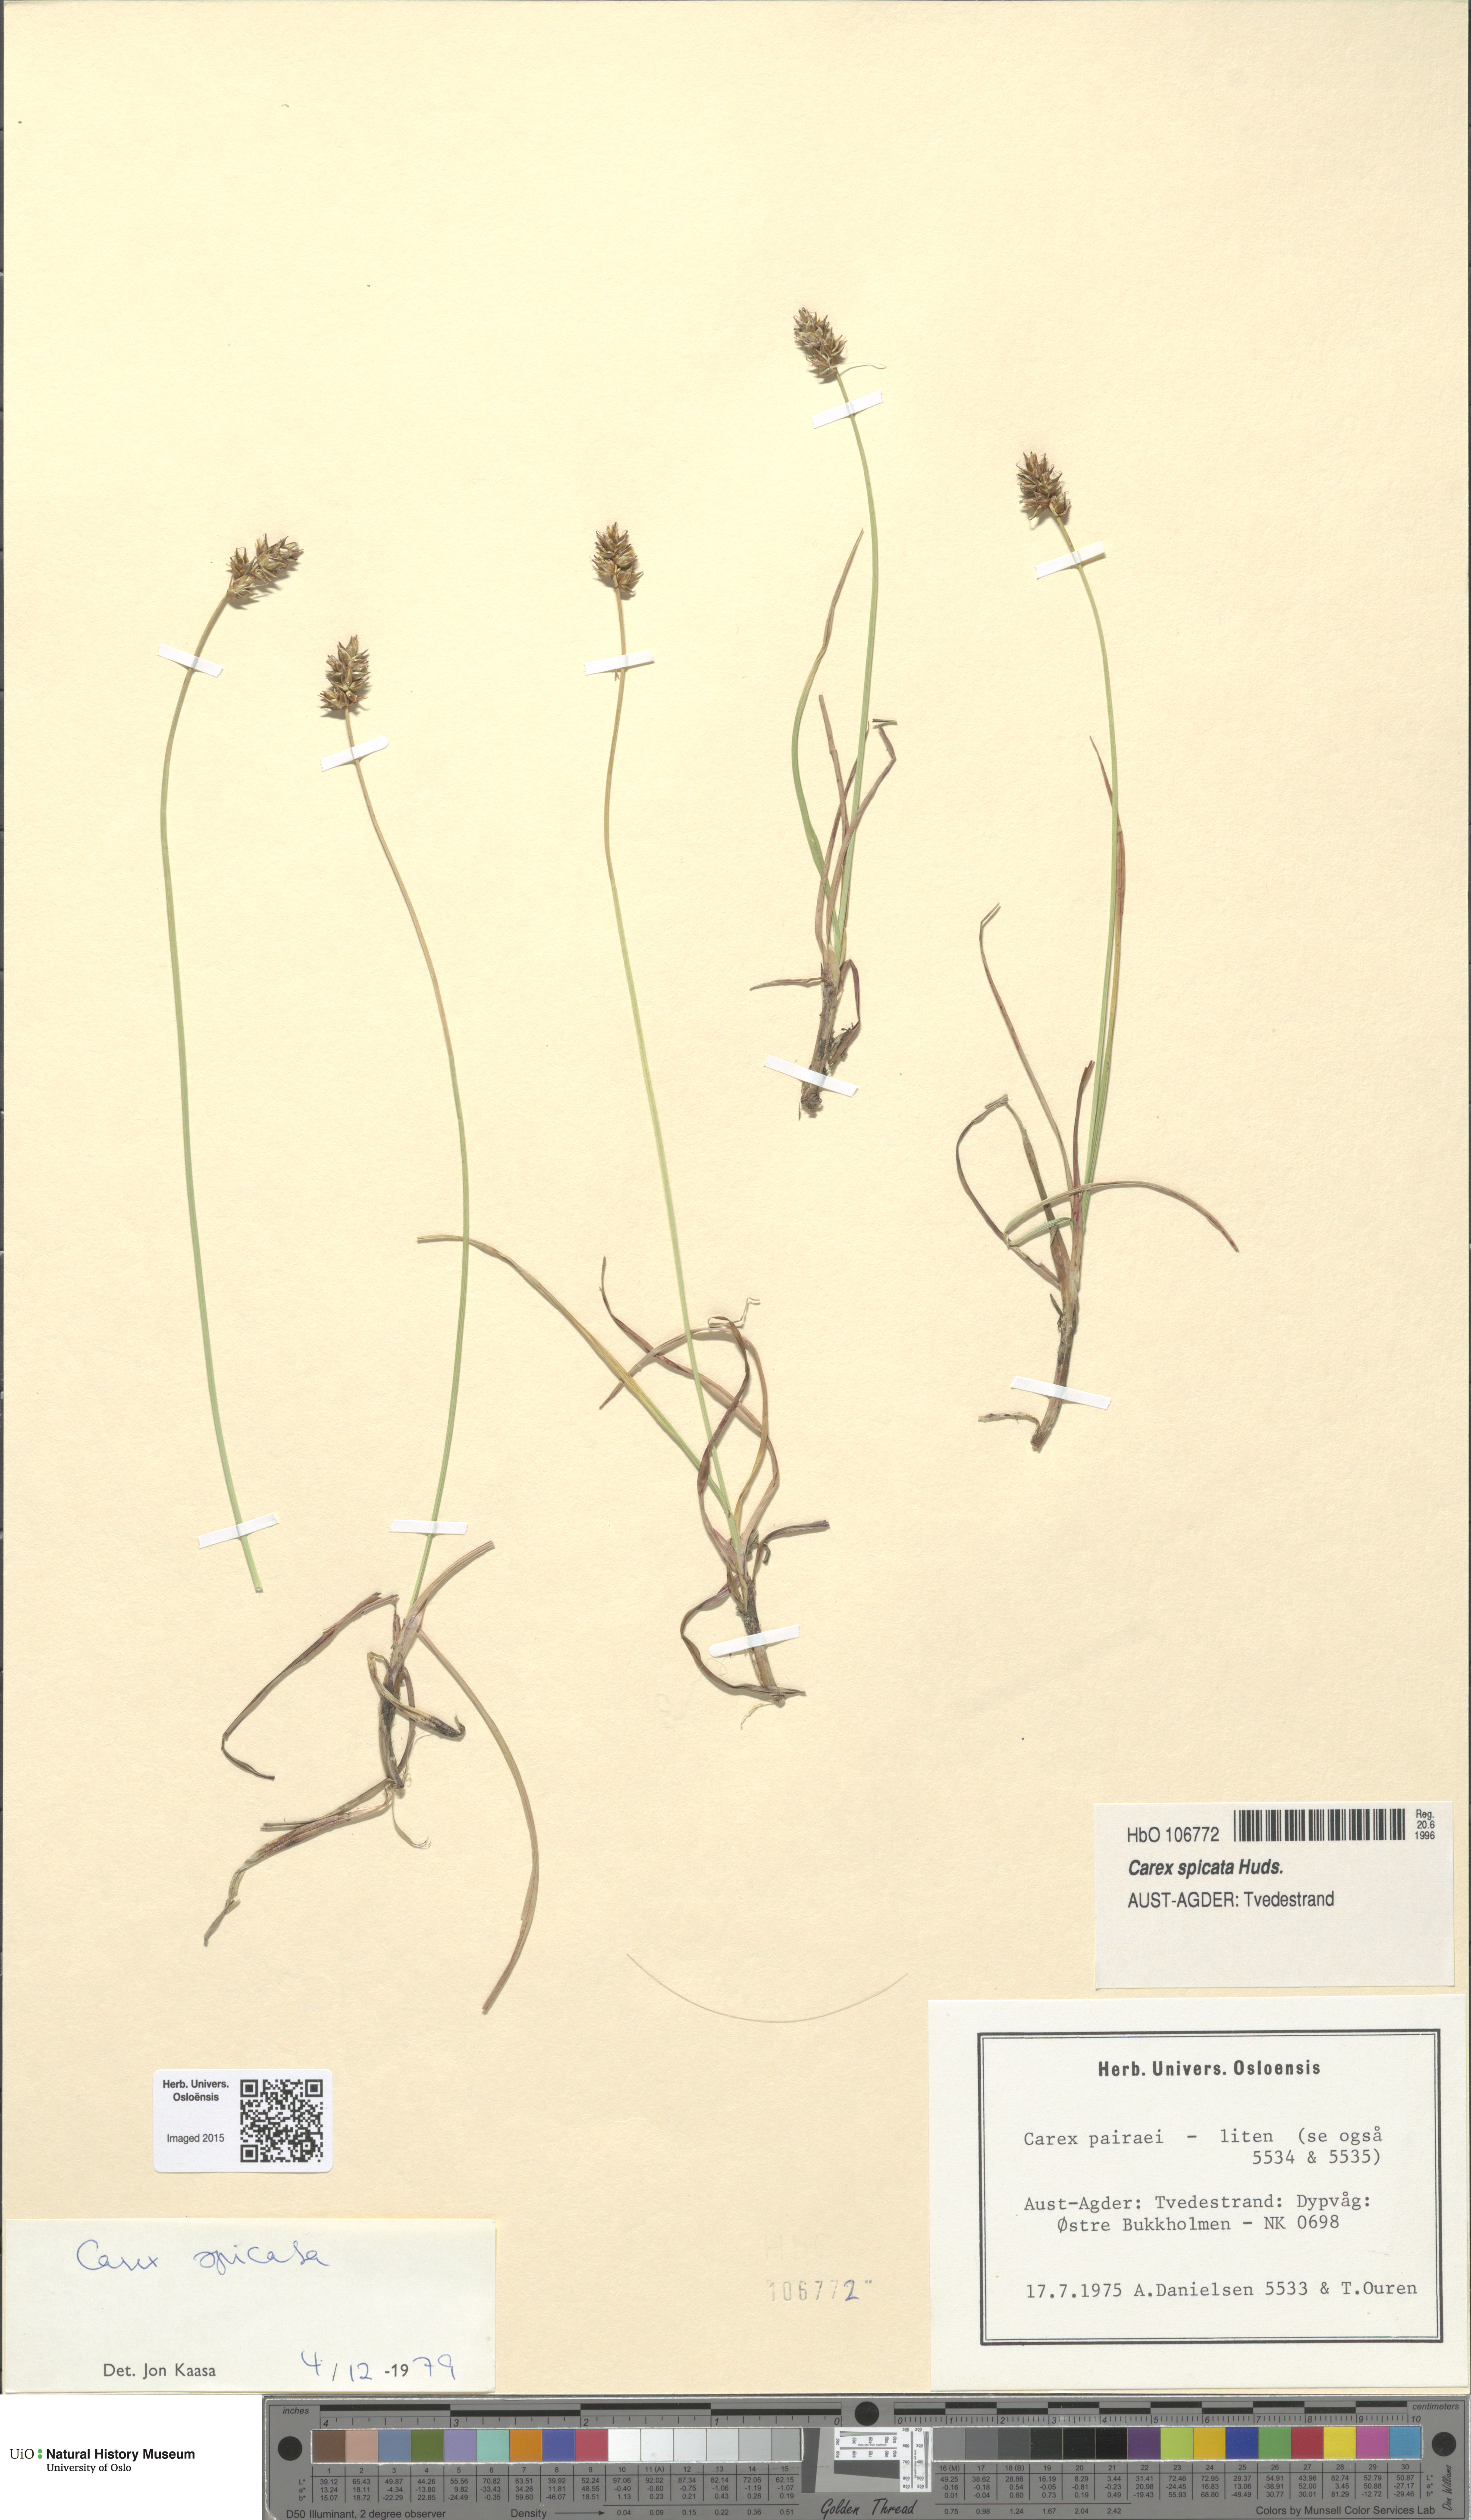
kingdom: Plantae
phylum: Tracheophyta
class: Liliopsida
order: Poales
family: Cyperaceae
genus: Carex
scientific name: Carex spicata
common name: Spiked sedge
